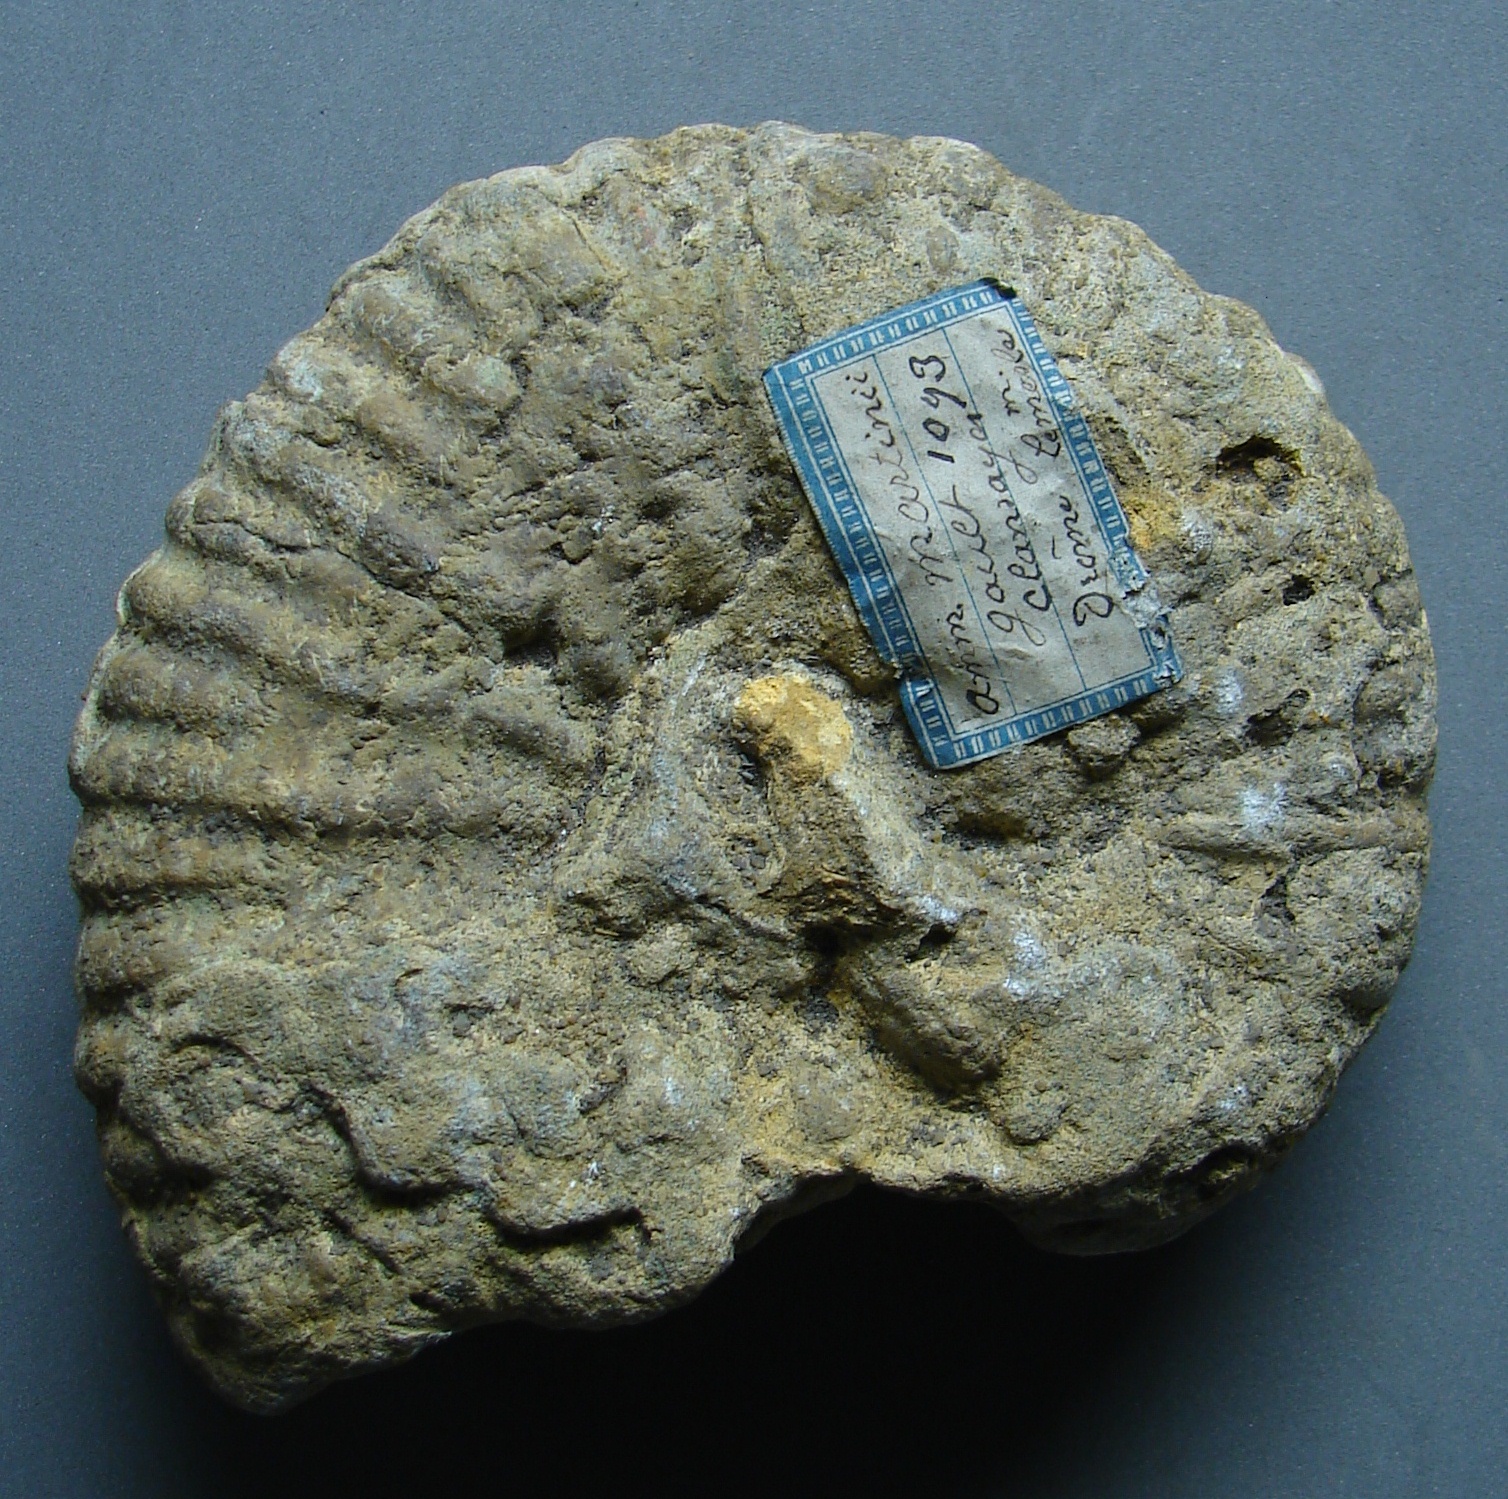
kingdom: Animalia
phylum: Mollusca
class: Cephalopoda
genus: Ammonites
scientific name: Ammonites
